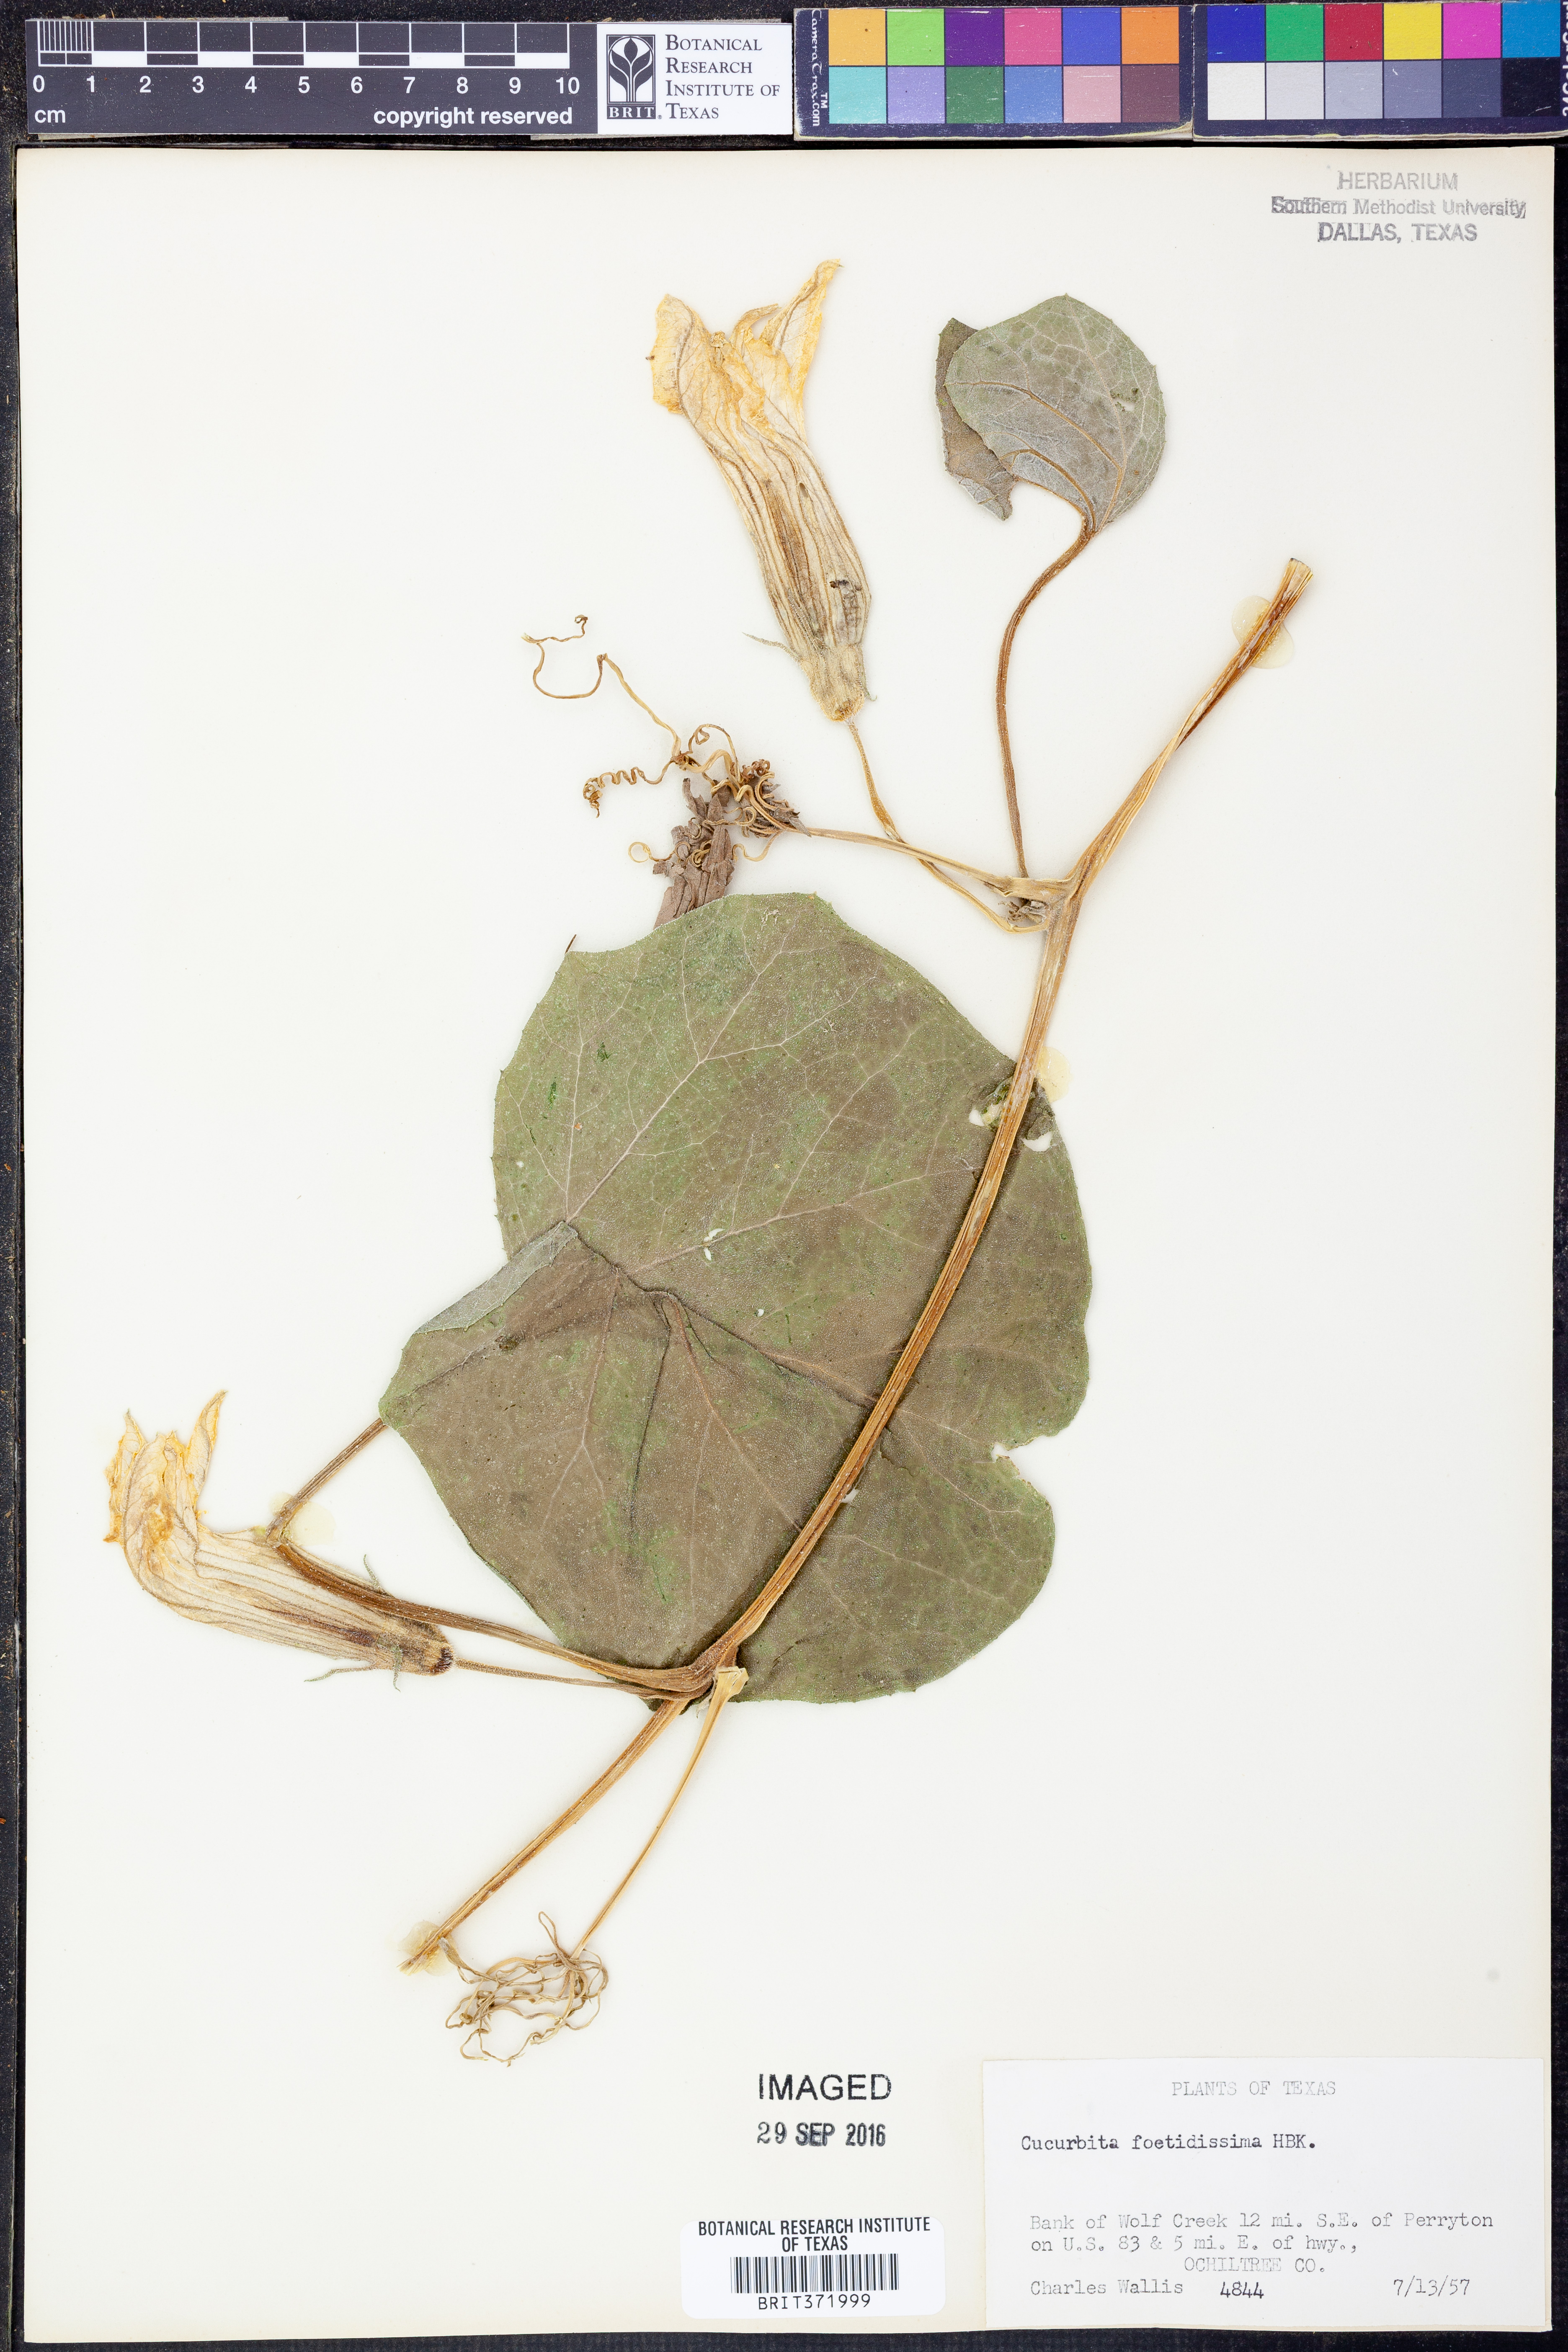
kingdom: Plantae
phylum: Tracheophyta
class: Magnoliopsida
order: Cucurbitales
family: Cucurbitaceae
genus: Cucurbita
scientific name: Cucurbita foetidissima
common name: Buffalo gourd
